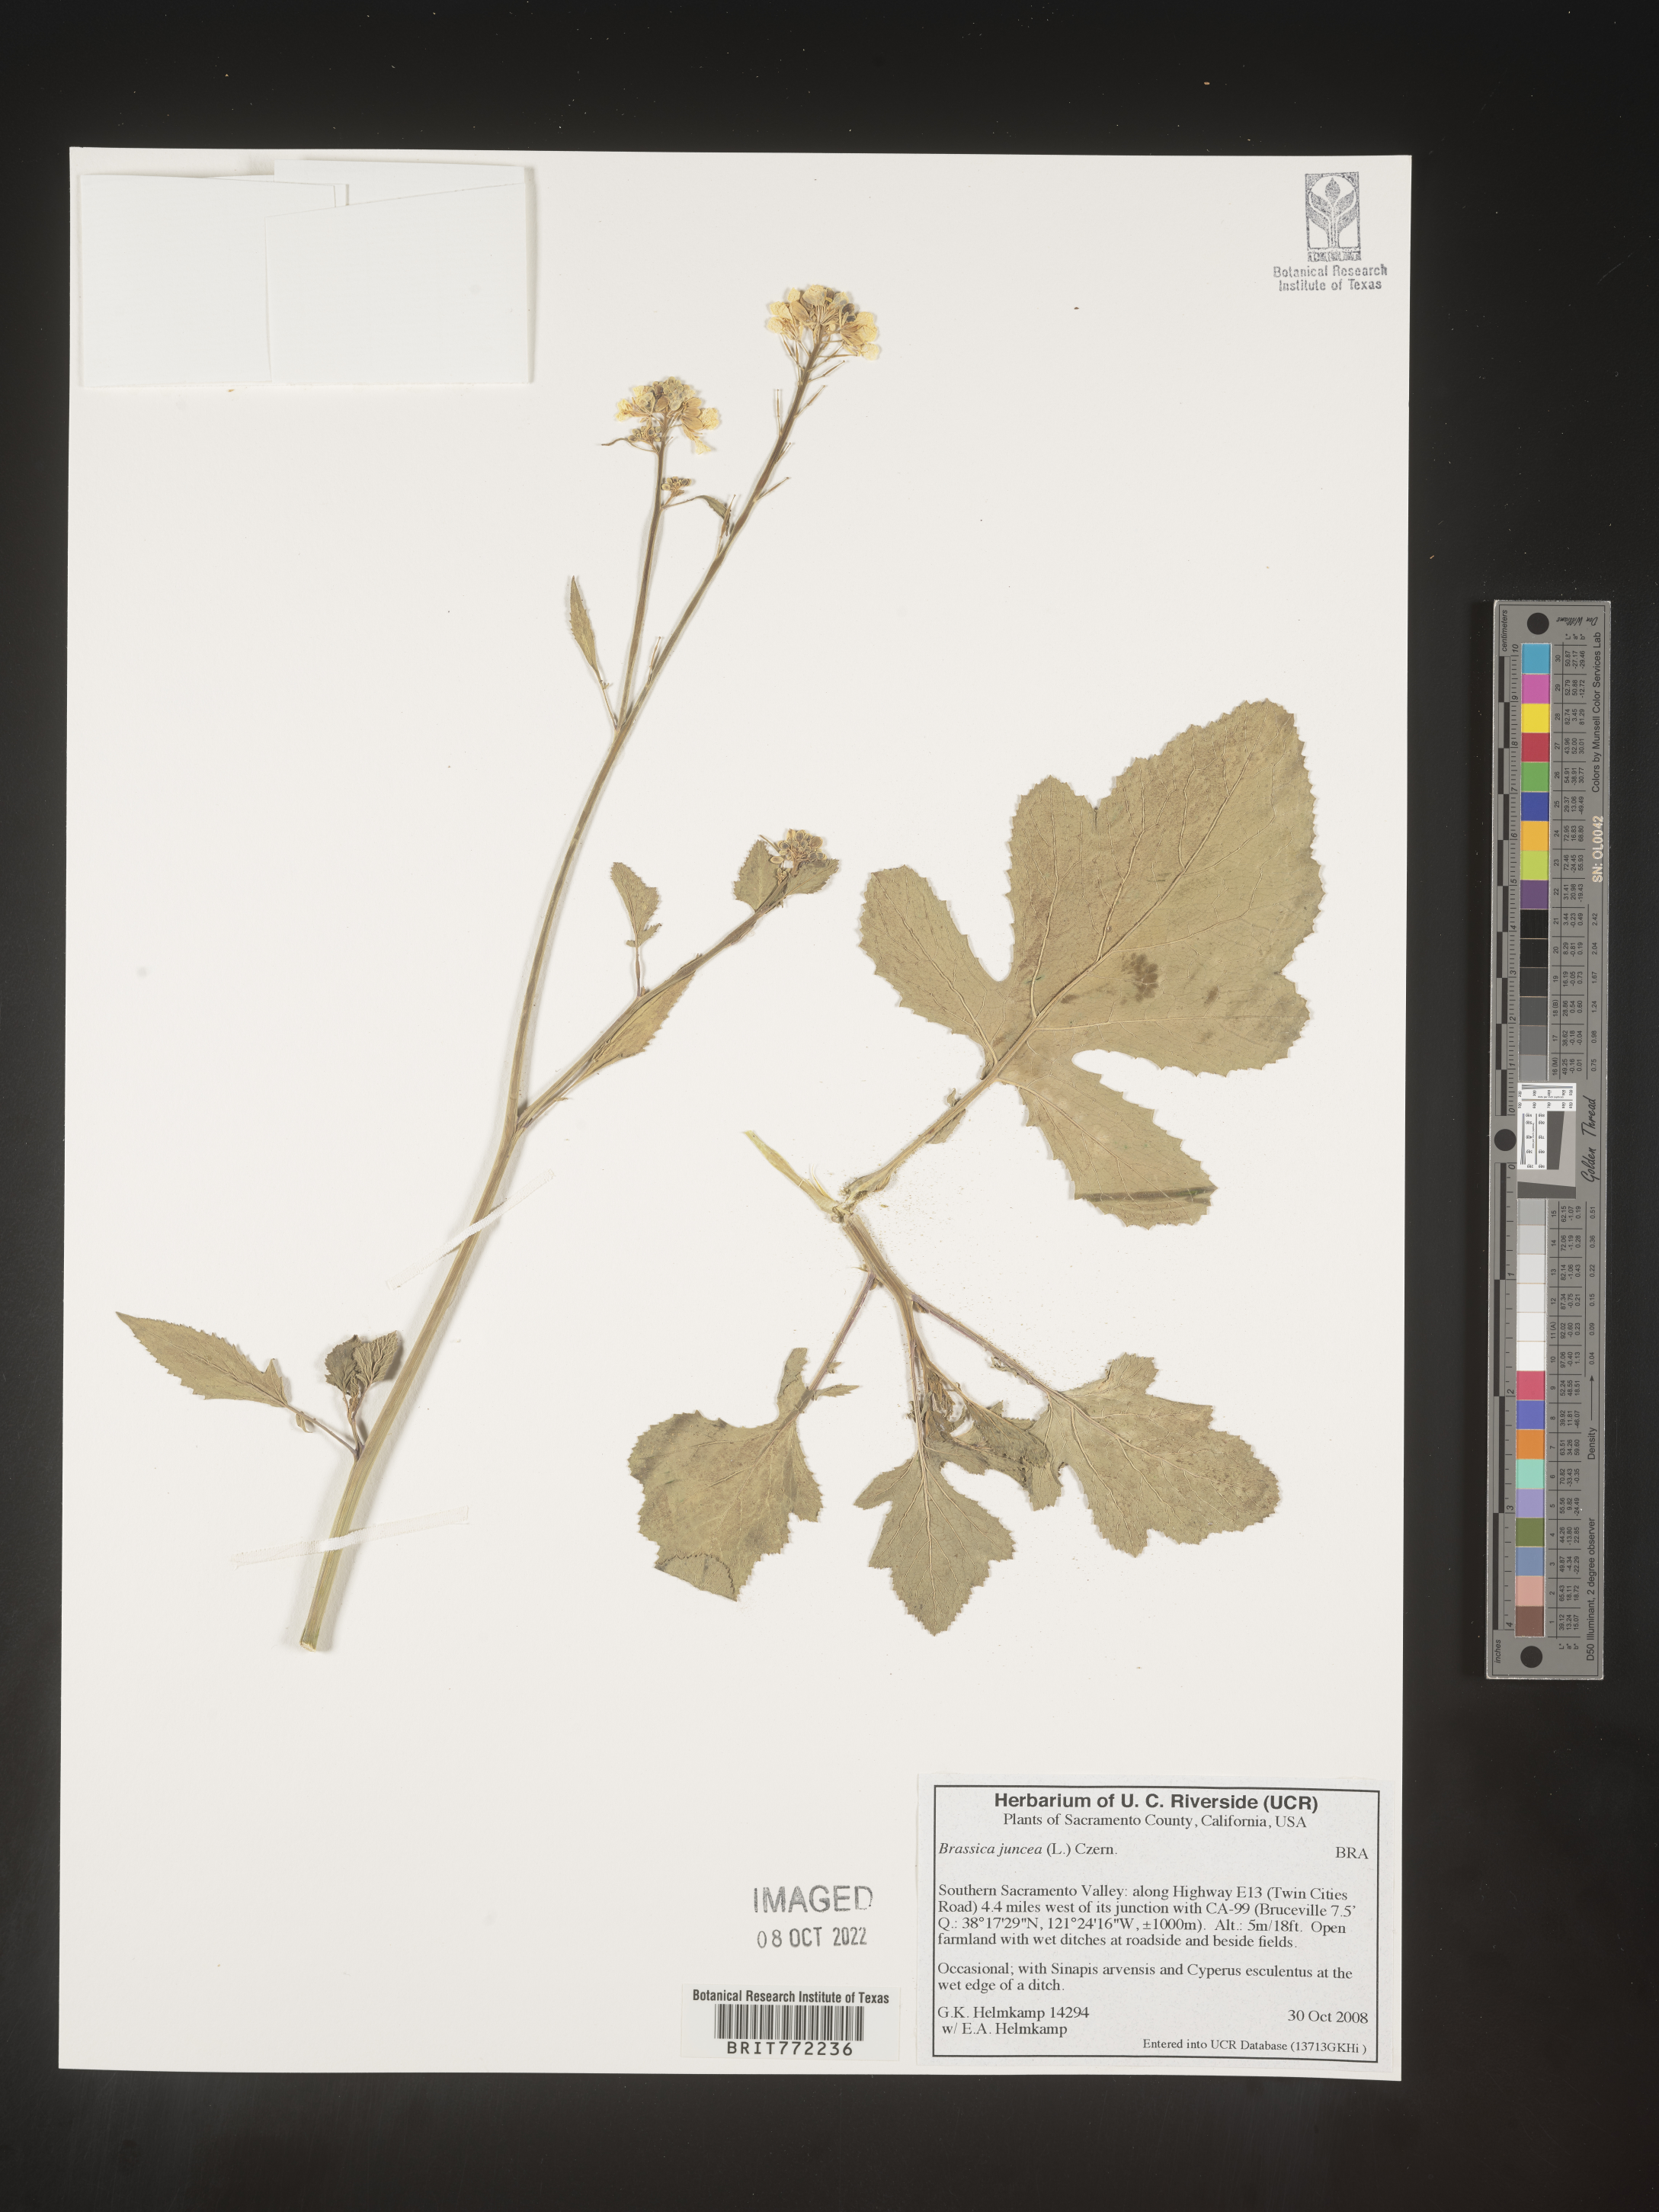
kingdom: Plantae
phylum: Tracheophyta
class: Magnoliopsida
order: Brassicales
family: Brassicaceae
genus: Brassica
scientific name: Brassica juncea
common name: Brown mustard
